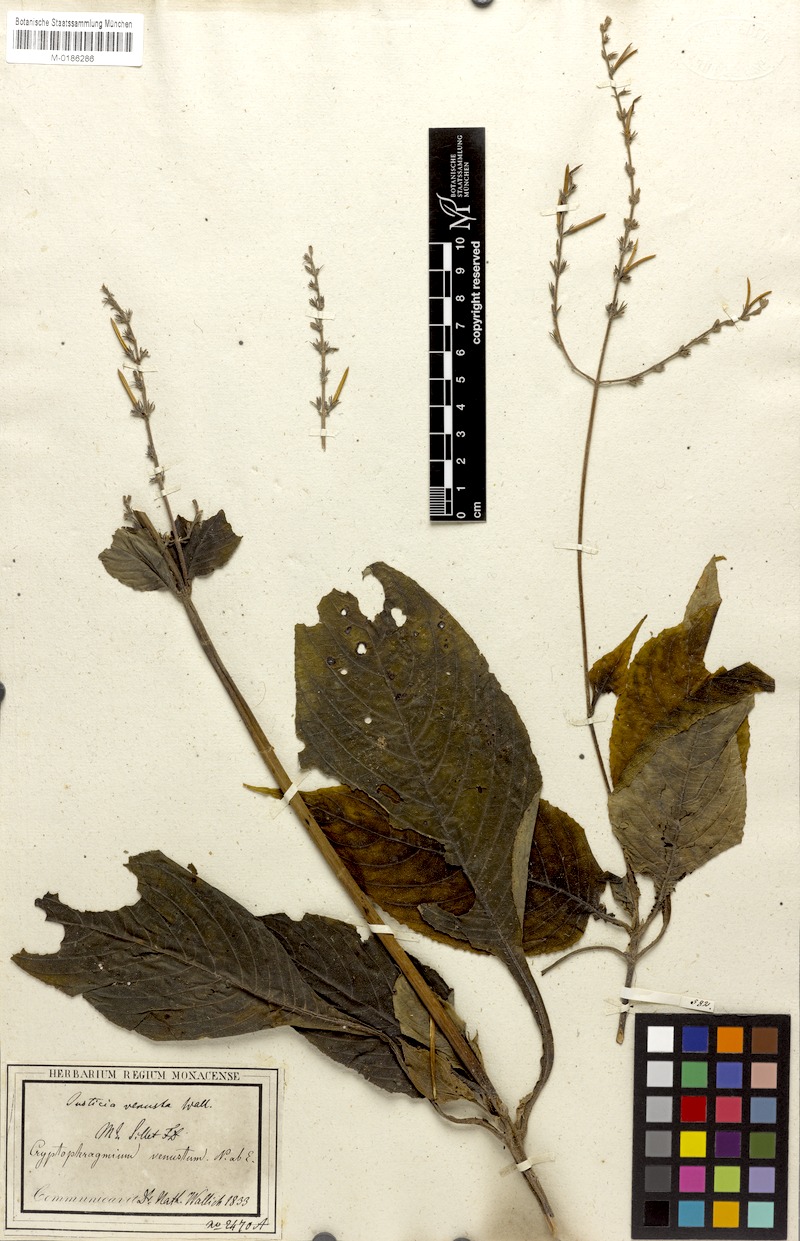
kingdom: Plantae
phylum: Tracheophyta
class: Magnoliopsida
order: Lamiales
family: Acanthaceae
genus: Gymnostachyum
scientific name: Gymnostachyum venustum
